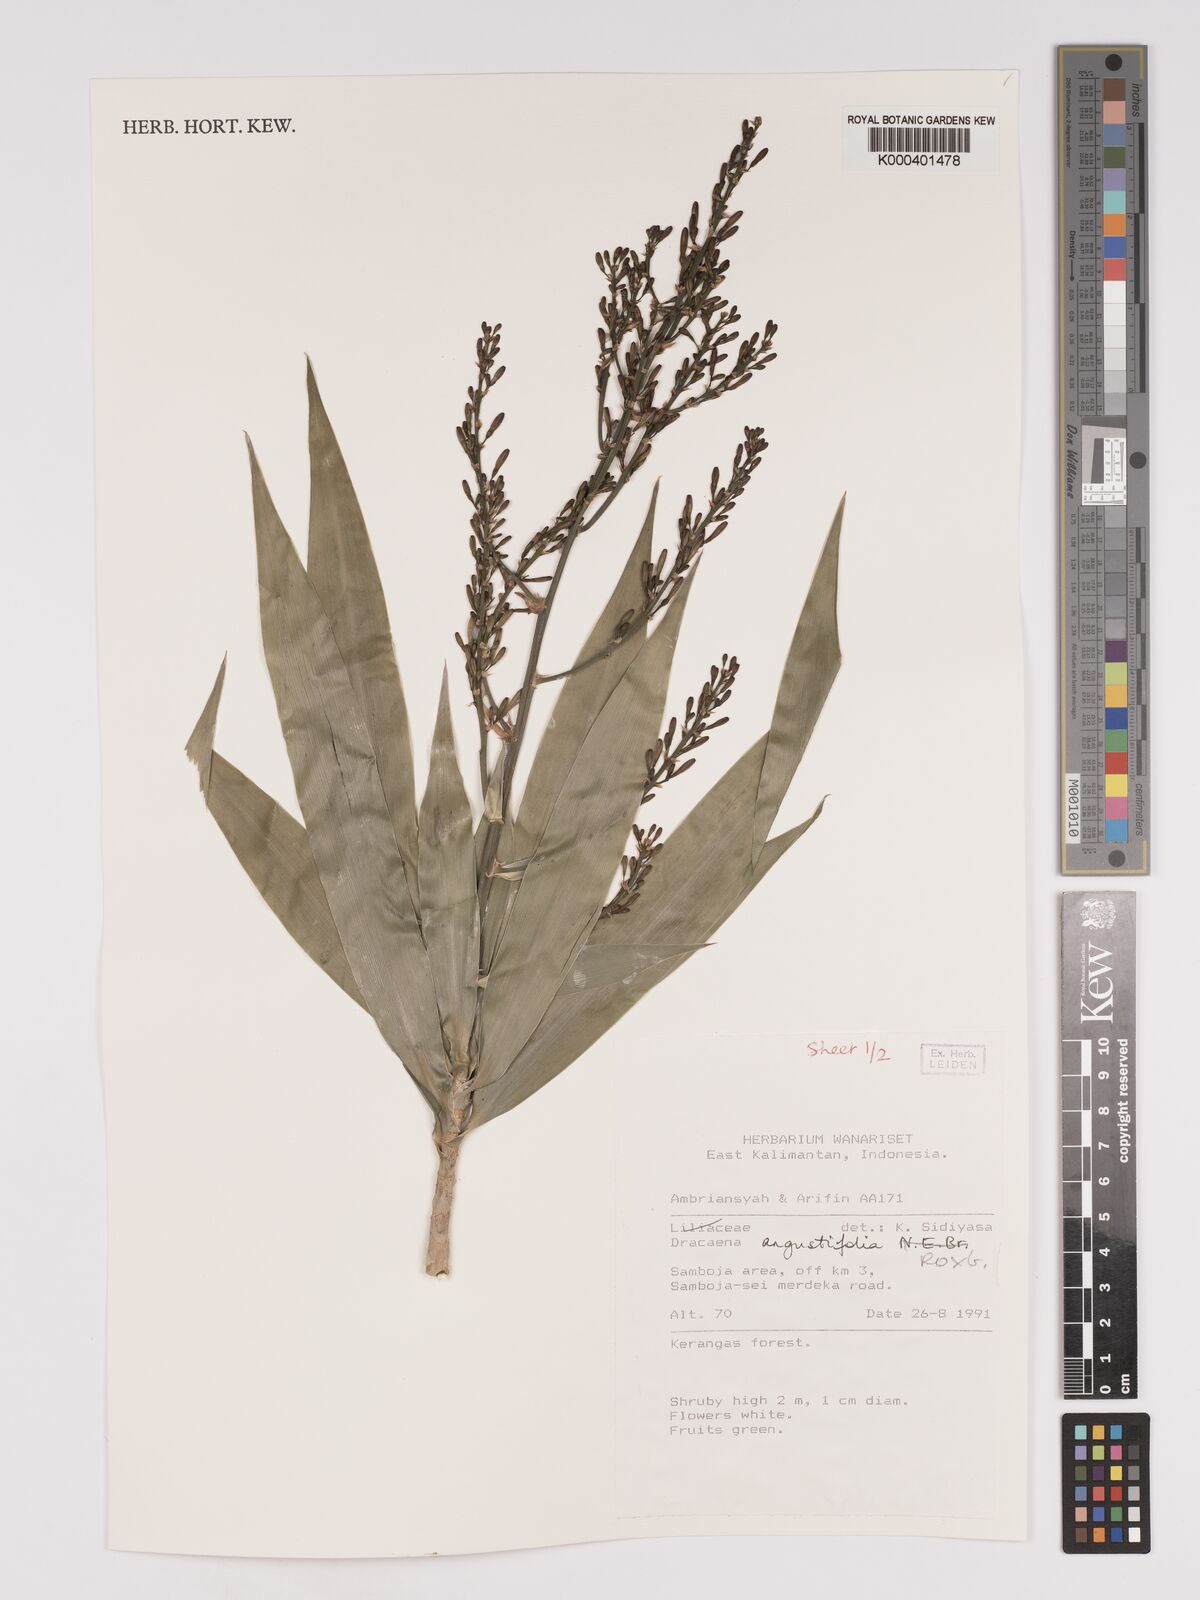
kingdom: Plantae
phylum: Tracheophyta
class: Liliopsida
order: Asparagales
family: Asparagaceae
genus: Dracaena
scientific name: Dracaena angustifolia
